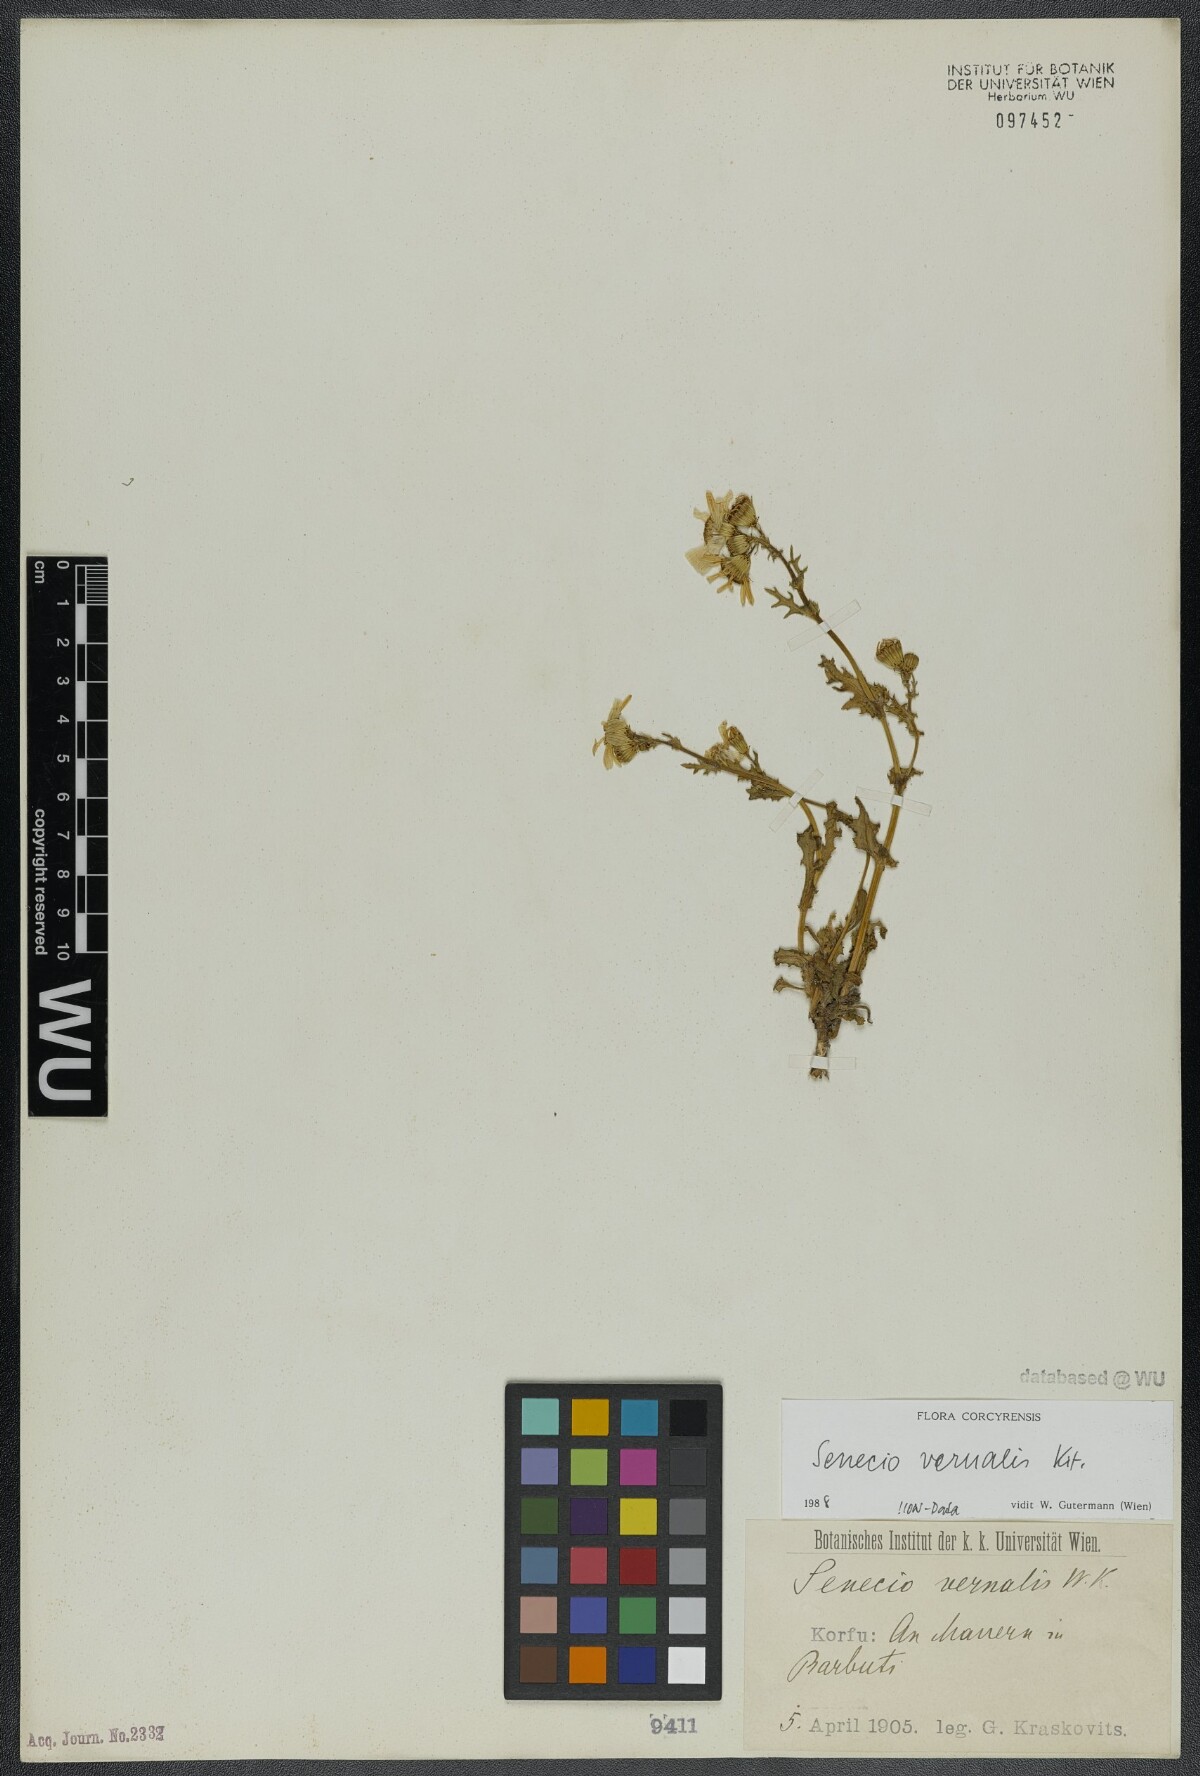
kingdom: Plantae
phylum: Tracheophyta
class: Magnoliopsida
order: Asterales
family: Asteraceae
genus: Senecio
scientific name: Senecio vernalis
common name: Eastern groundsel
